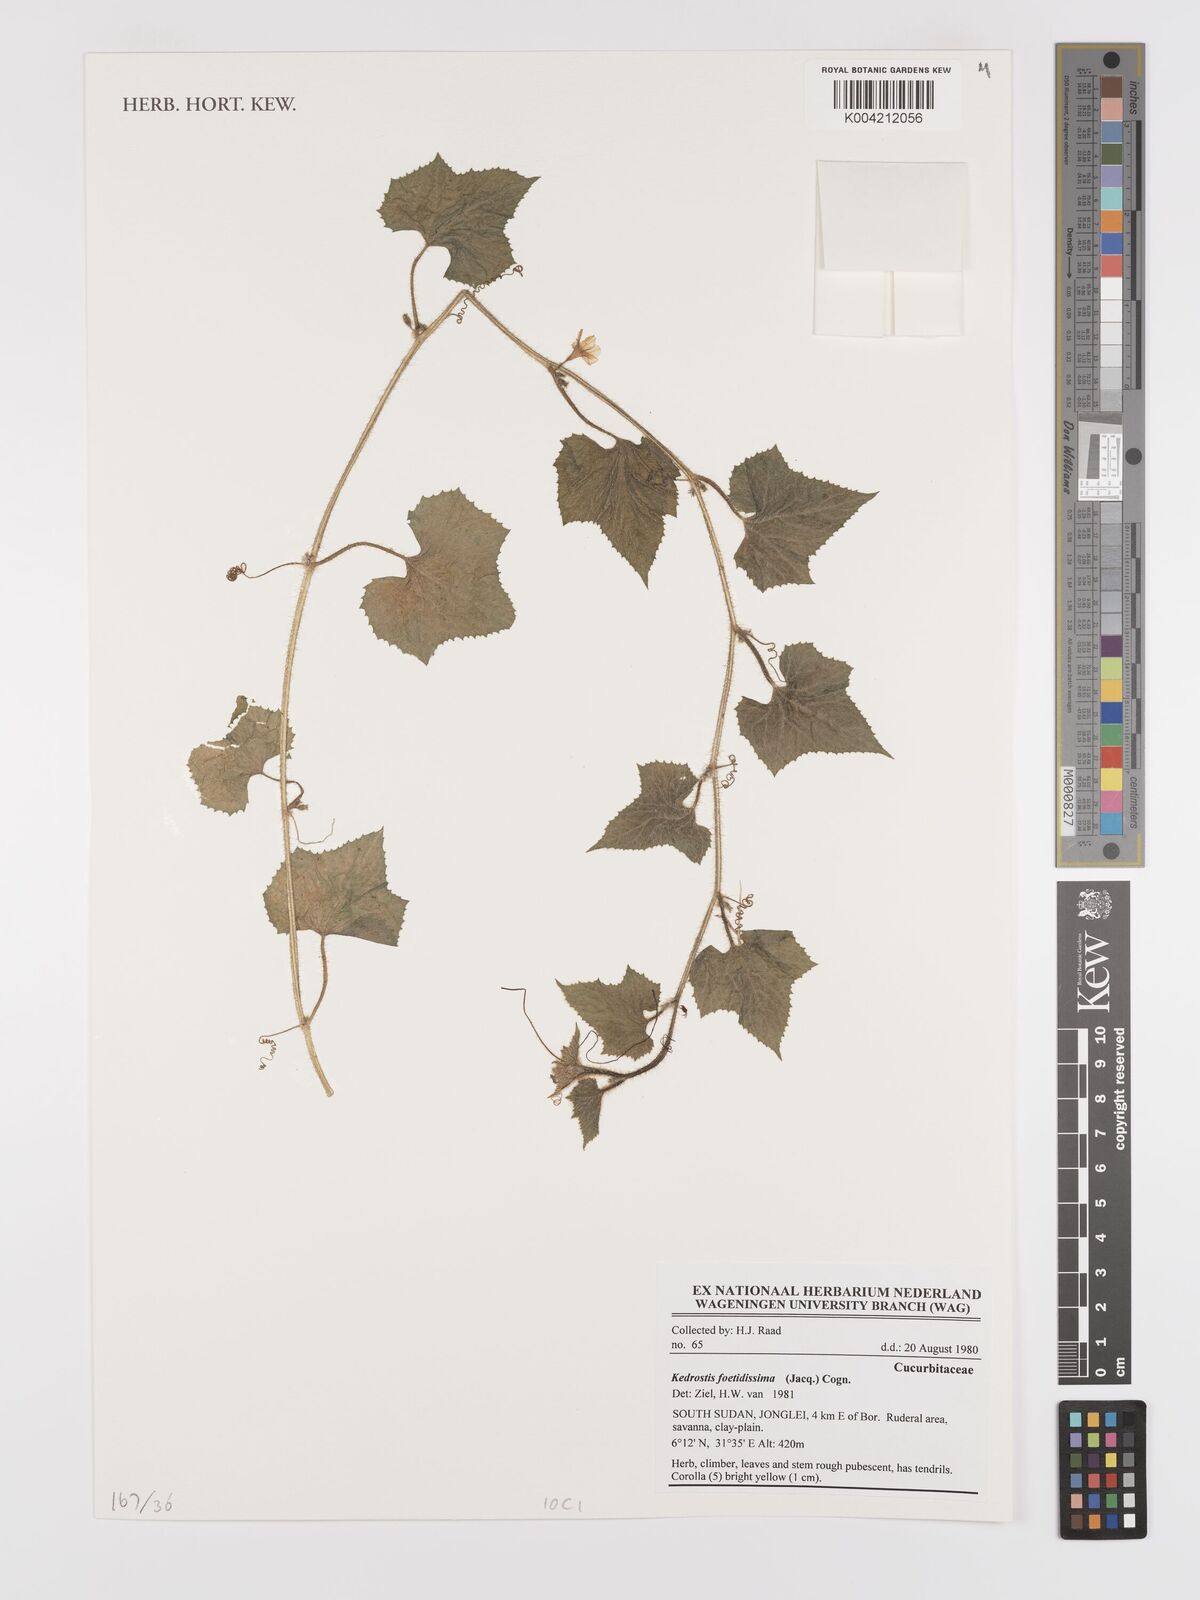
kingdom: Plantae
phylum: Tracheophyta
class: Magnoliopsida
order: Cucurbitales
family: Cucurbitaceae
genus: Kedrostis
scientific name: Kedrostis foetidissima
